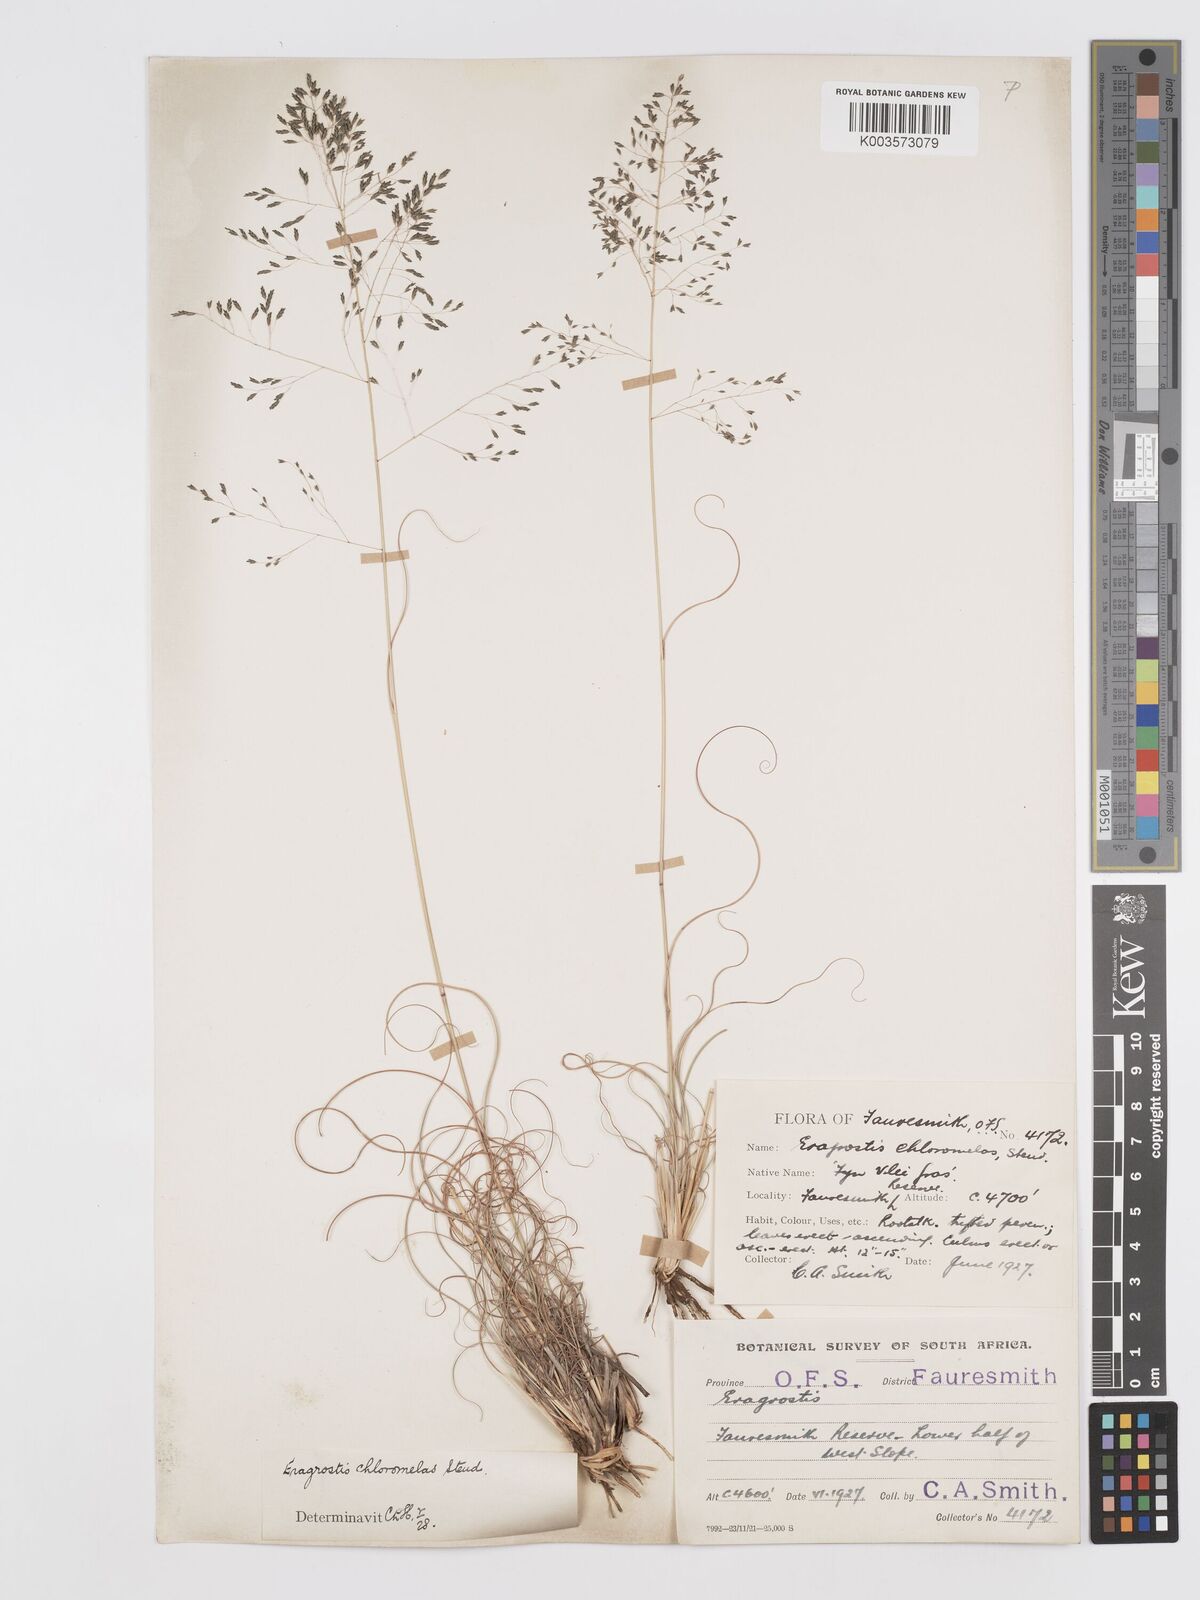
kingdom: Plantae
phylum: Tracheophyta
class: Liliopsida
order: Poales
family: Poaceae
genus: Eragrostis
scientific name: Eragrostis curvula
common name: African love-grass
